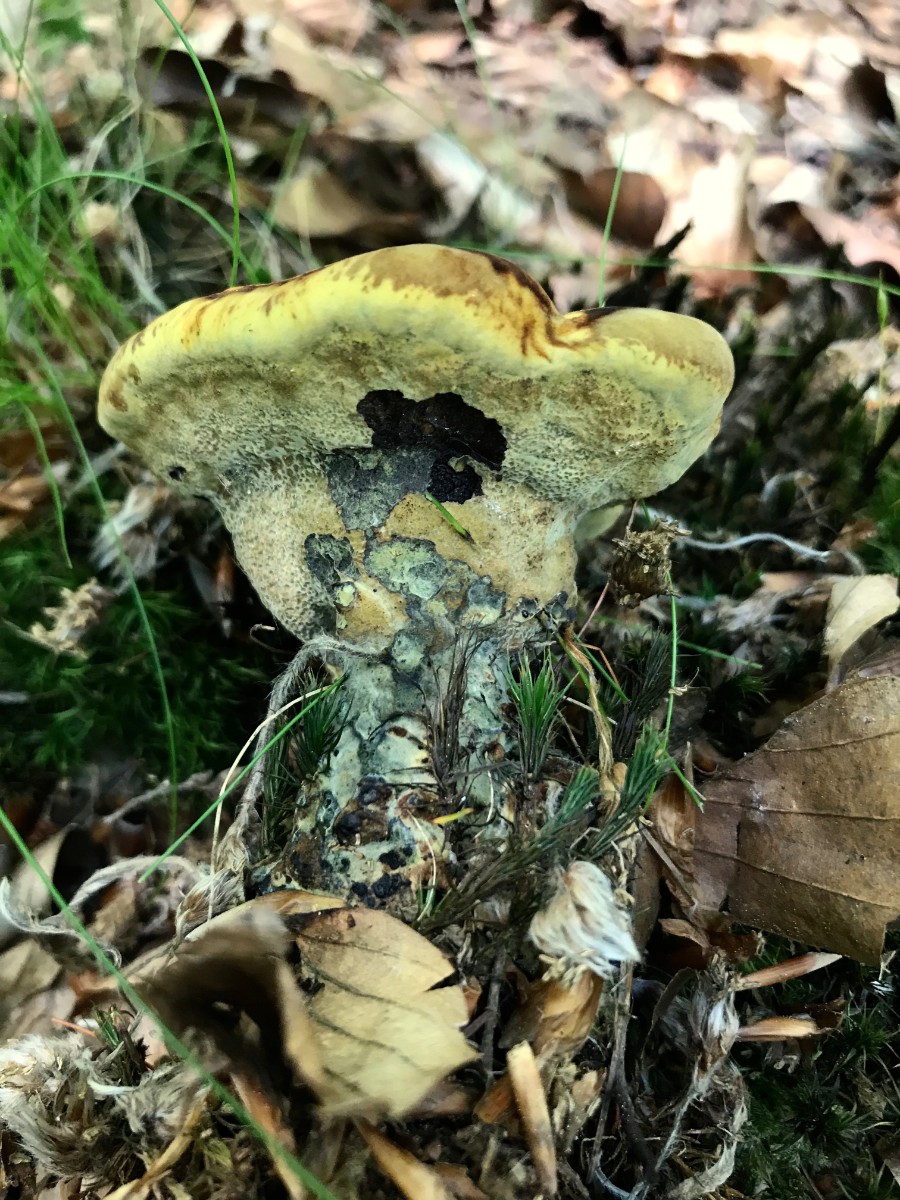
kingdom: Fungi
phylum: Basidiomycota
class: Agaricomycetes
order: Polyporales
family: Laetiporaceae
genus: Phaeolus
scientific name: Phaeolus schweinitzii
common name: brunporesvamp
